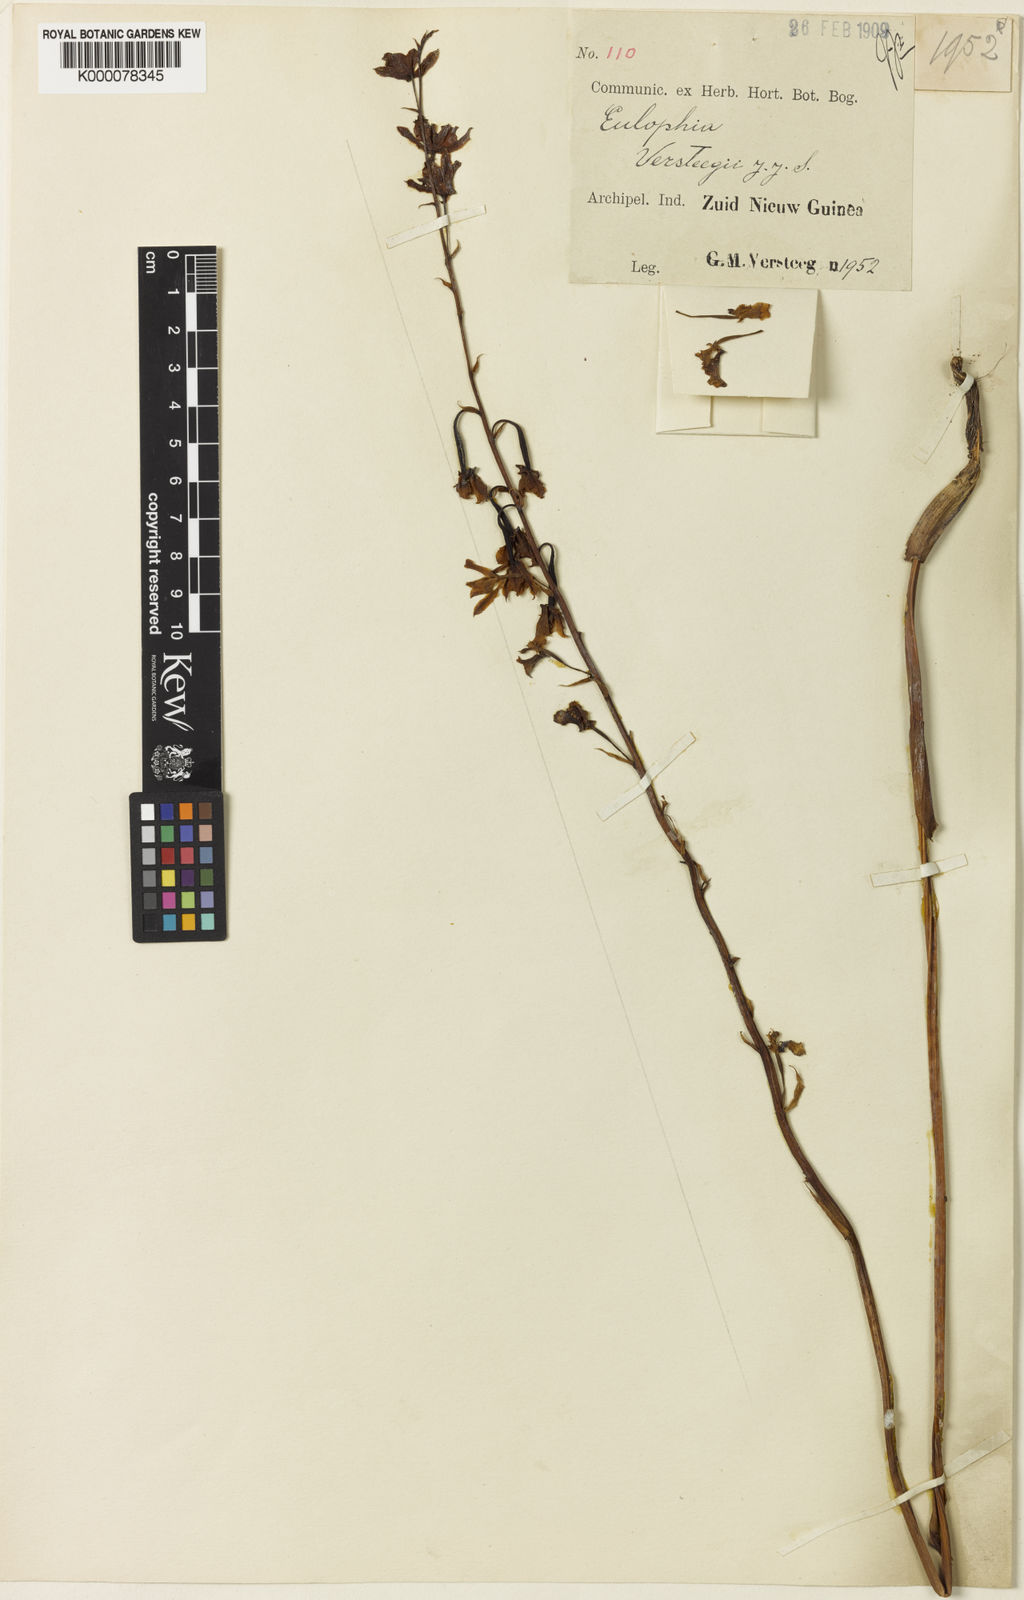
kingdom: Plantae
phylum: Tracheophyta
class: Liliopsida
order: Asparagales
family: Orchidaceae
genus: Eulophia
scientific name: Eulophia bicallosa
